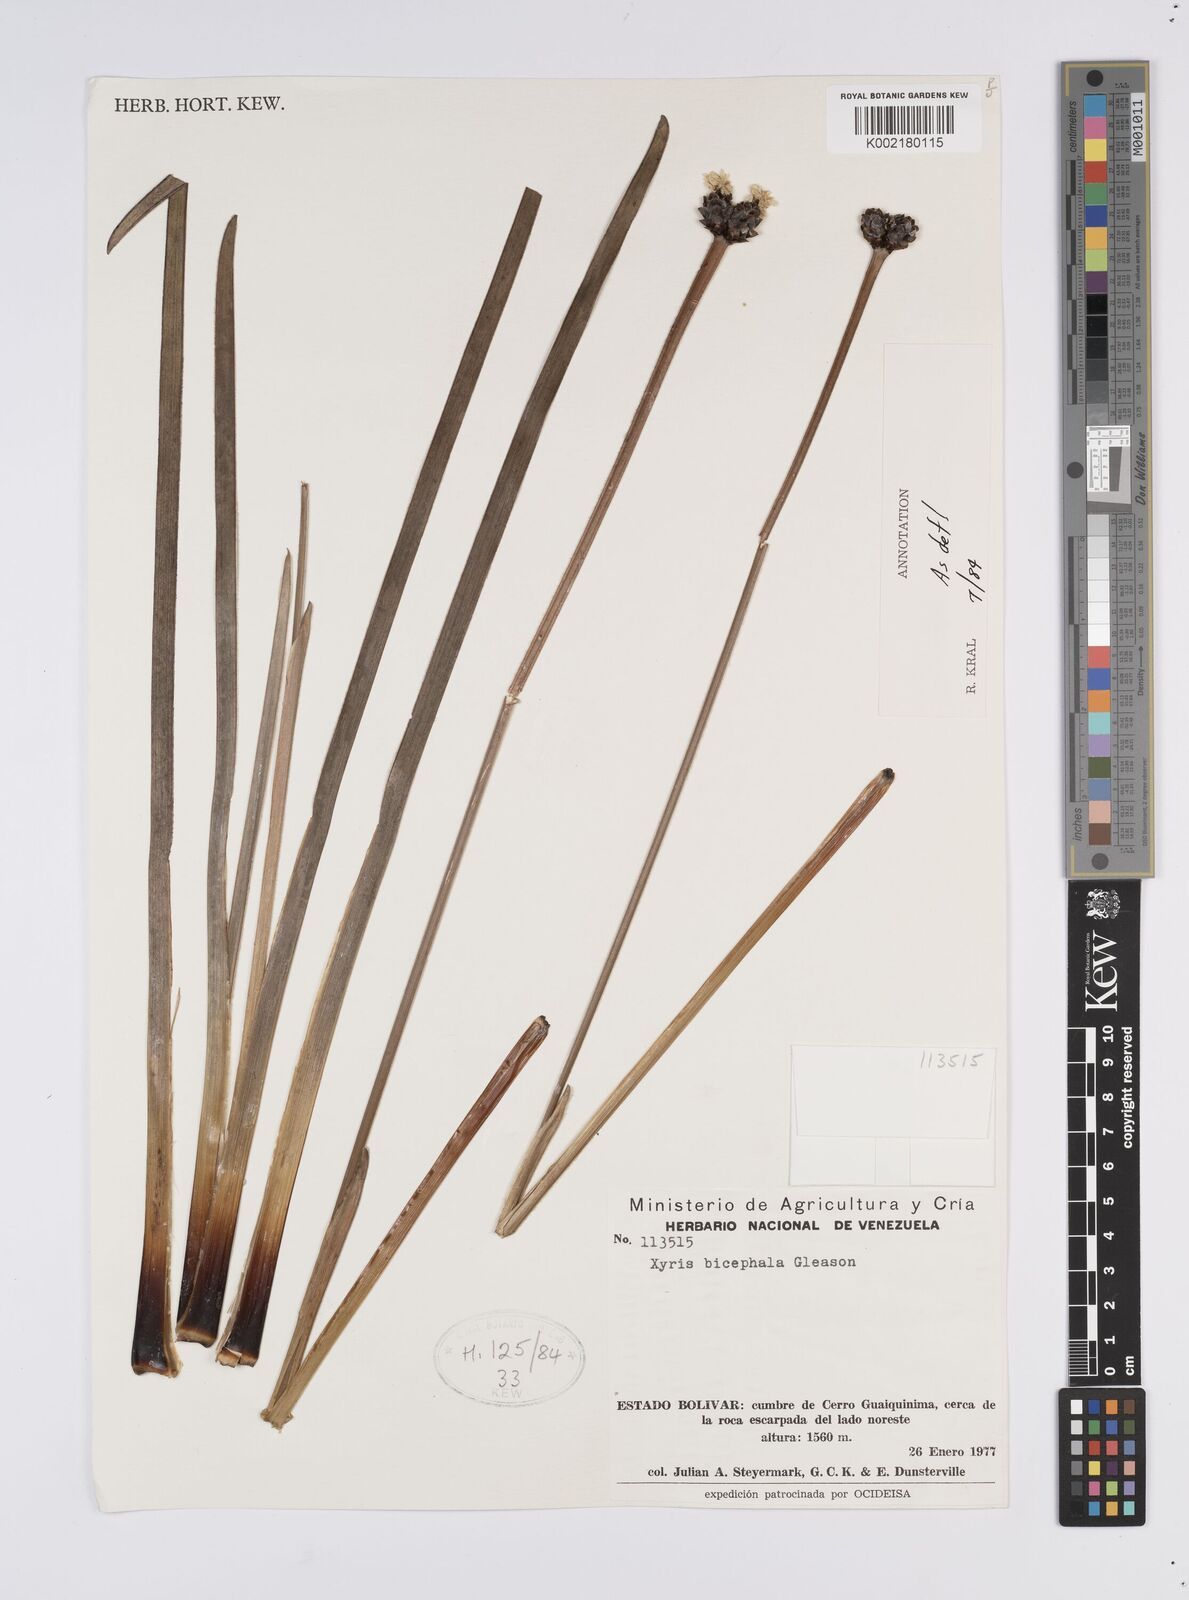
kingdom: Plantae
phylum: Tracheophyta
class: Liliopsida
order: Poales
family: Xyridaceae
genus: Xyris
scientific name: Xyris bicephala
